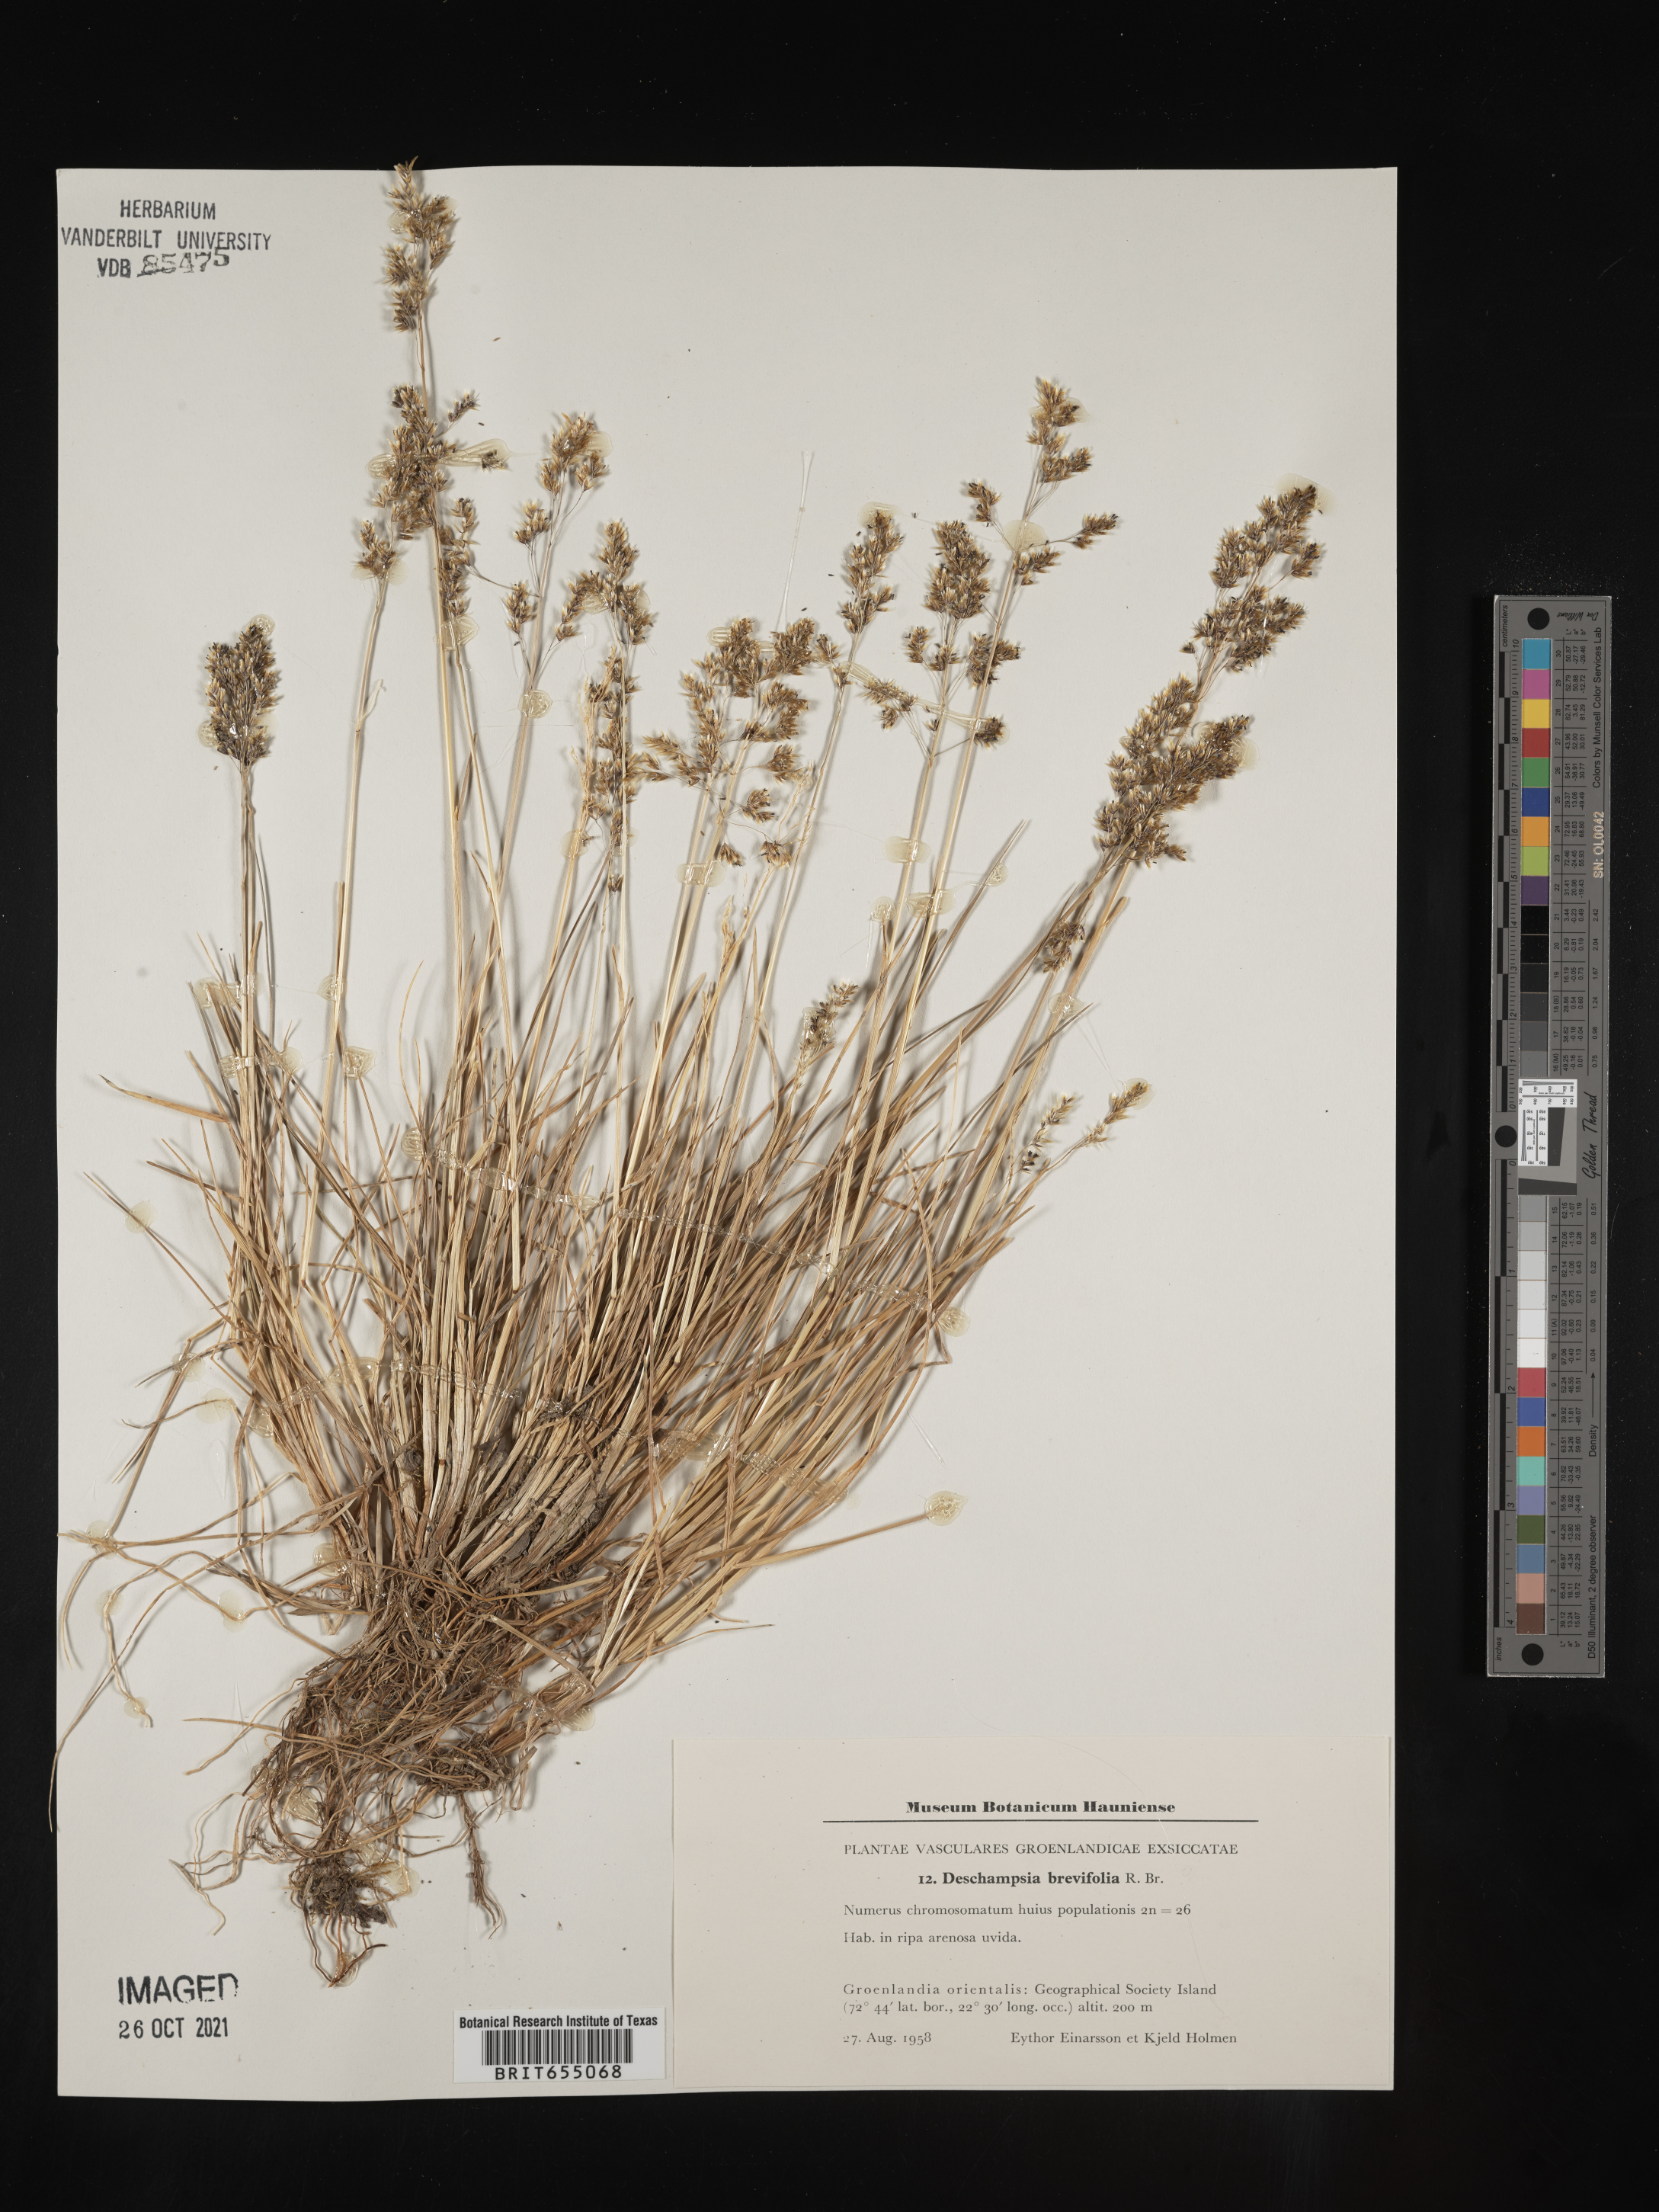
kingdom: Plantae
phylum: Tracheophyta
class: Liliopsida
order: Poales
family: Poaceae
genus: Deschampsia
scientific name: Deschampsia
